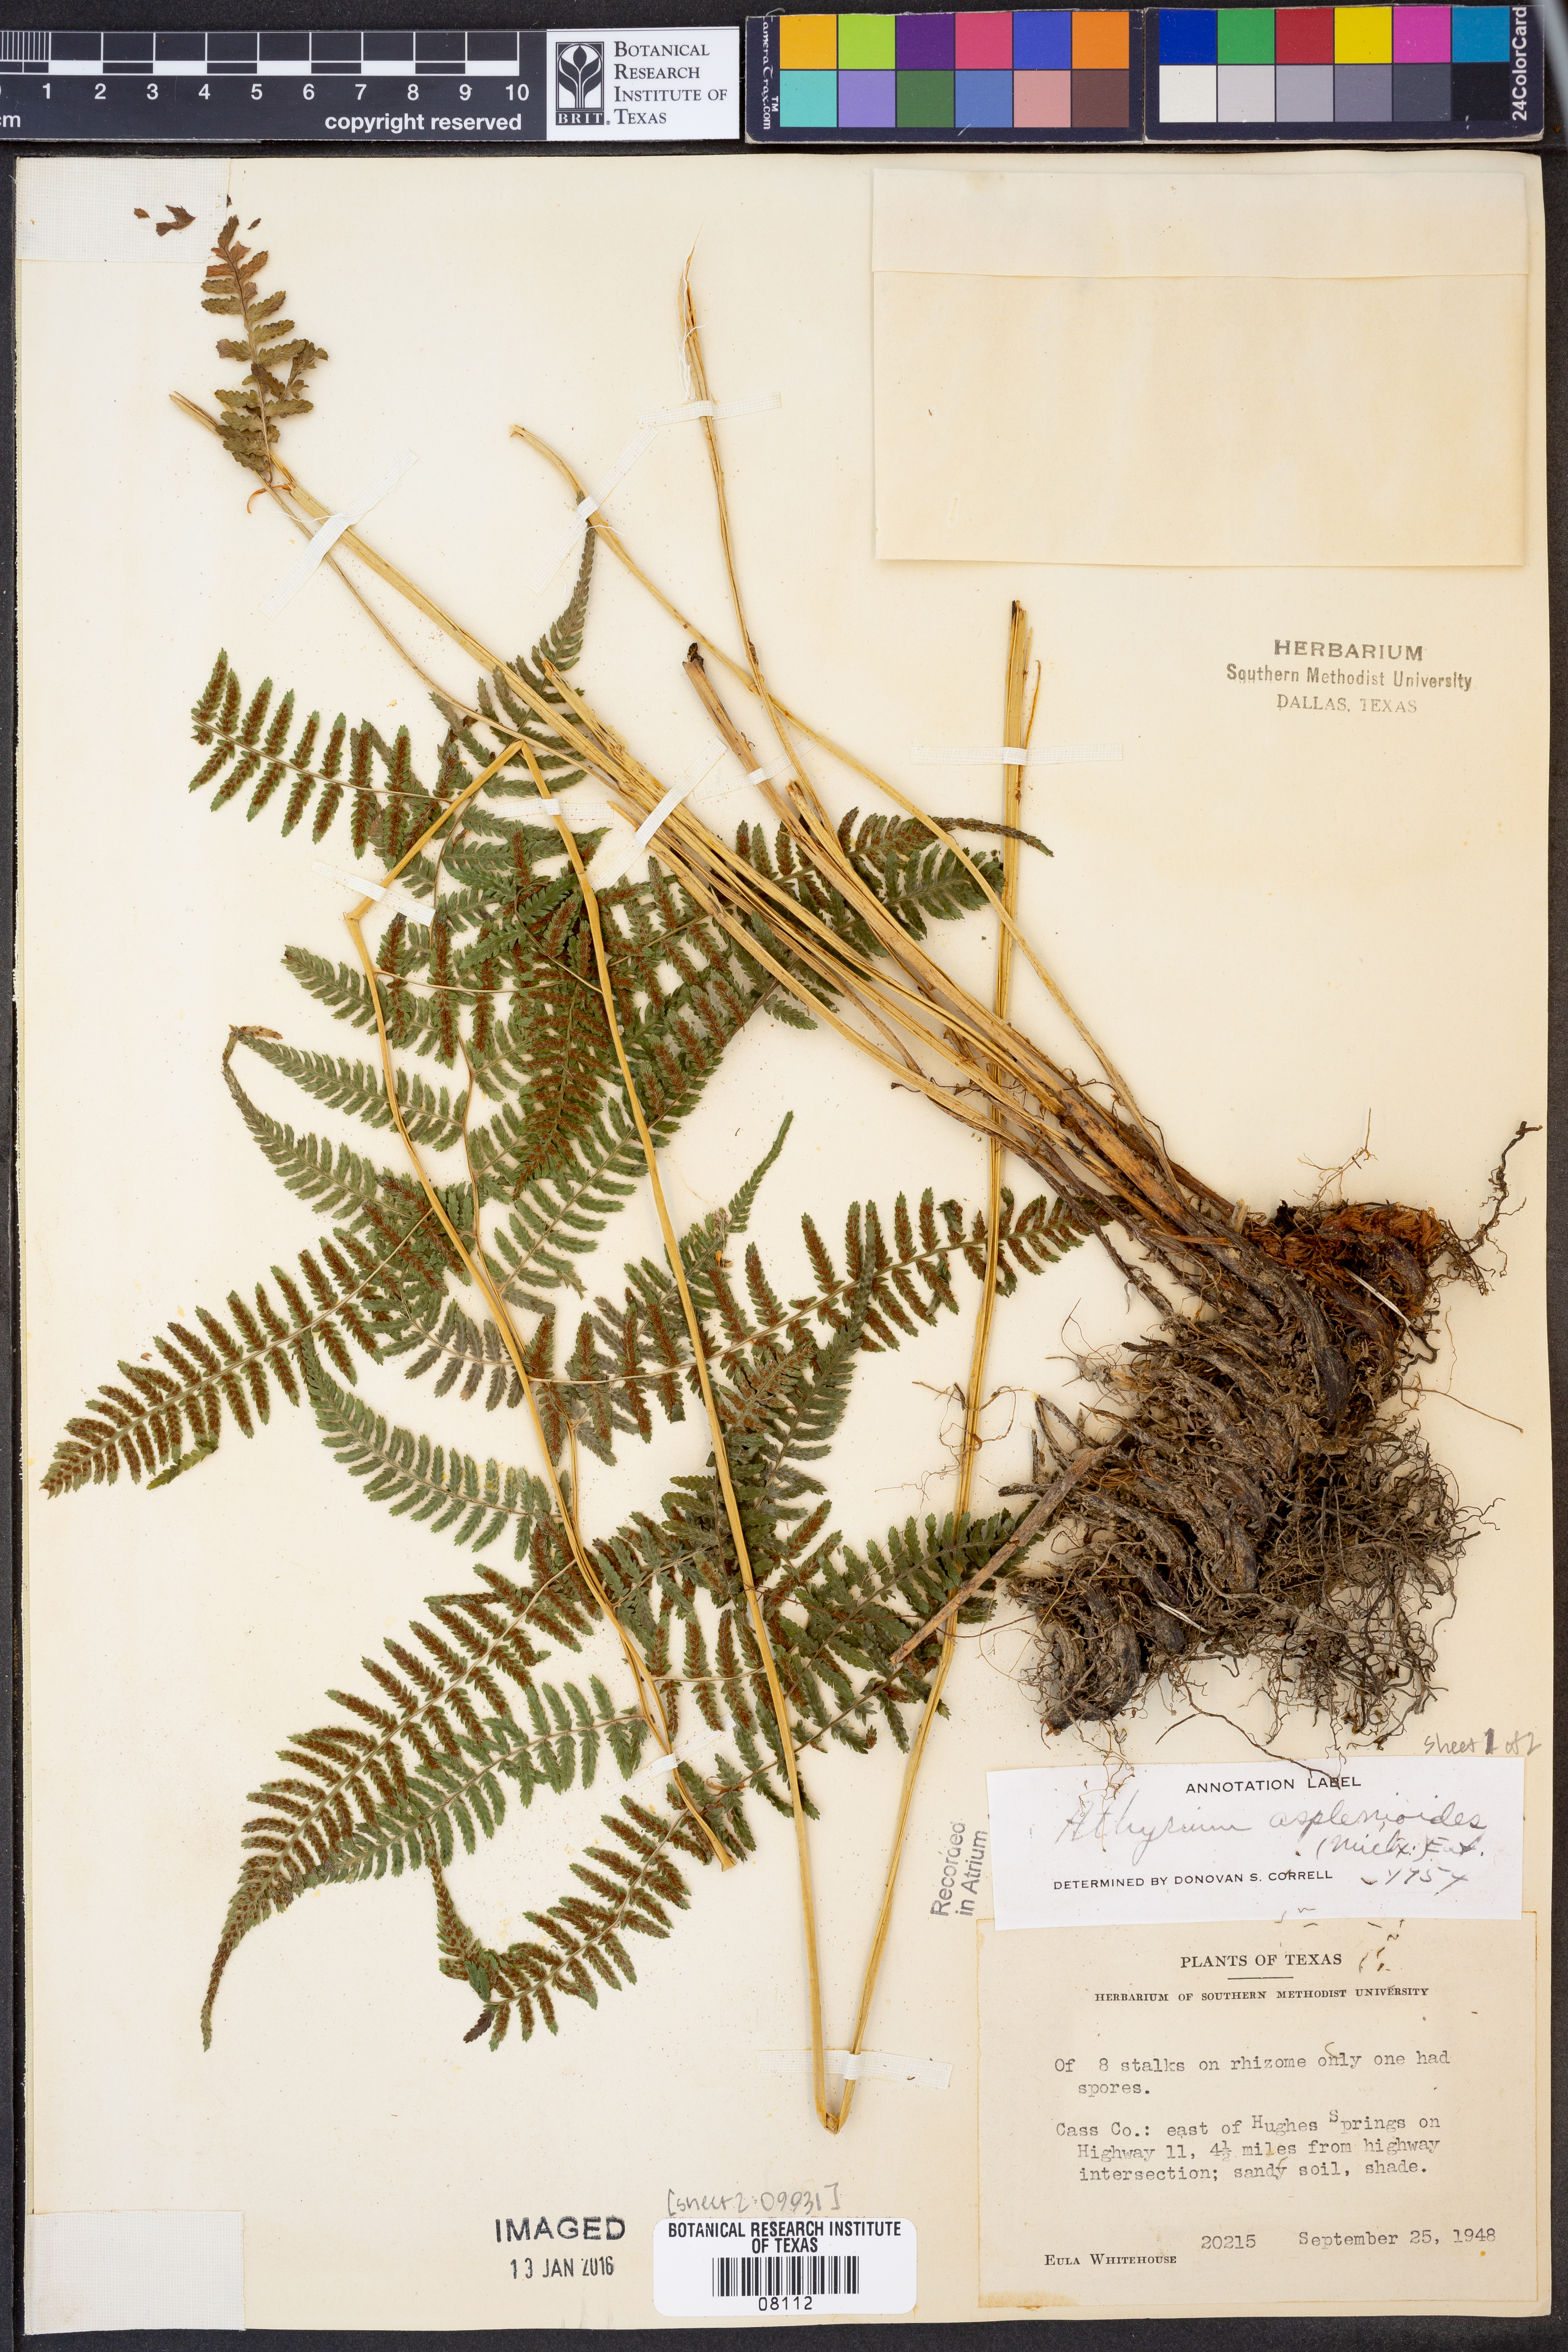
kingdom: Plantae
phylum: Tracheophyta
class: Polypodiopsida
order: Polypodiales
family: Athyriaceae
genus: Athyrium
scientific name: Athyrium asplenioides
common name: Southern lady fern
